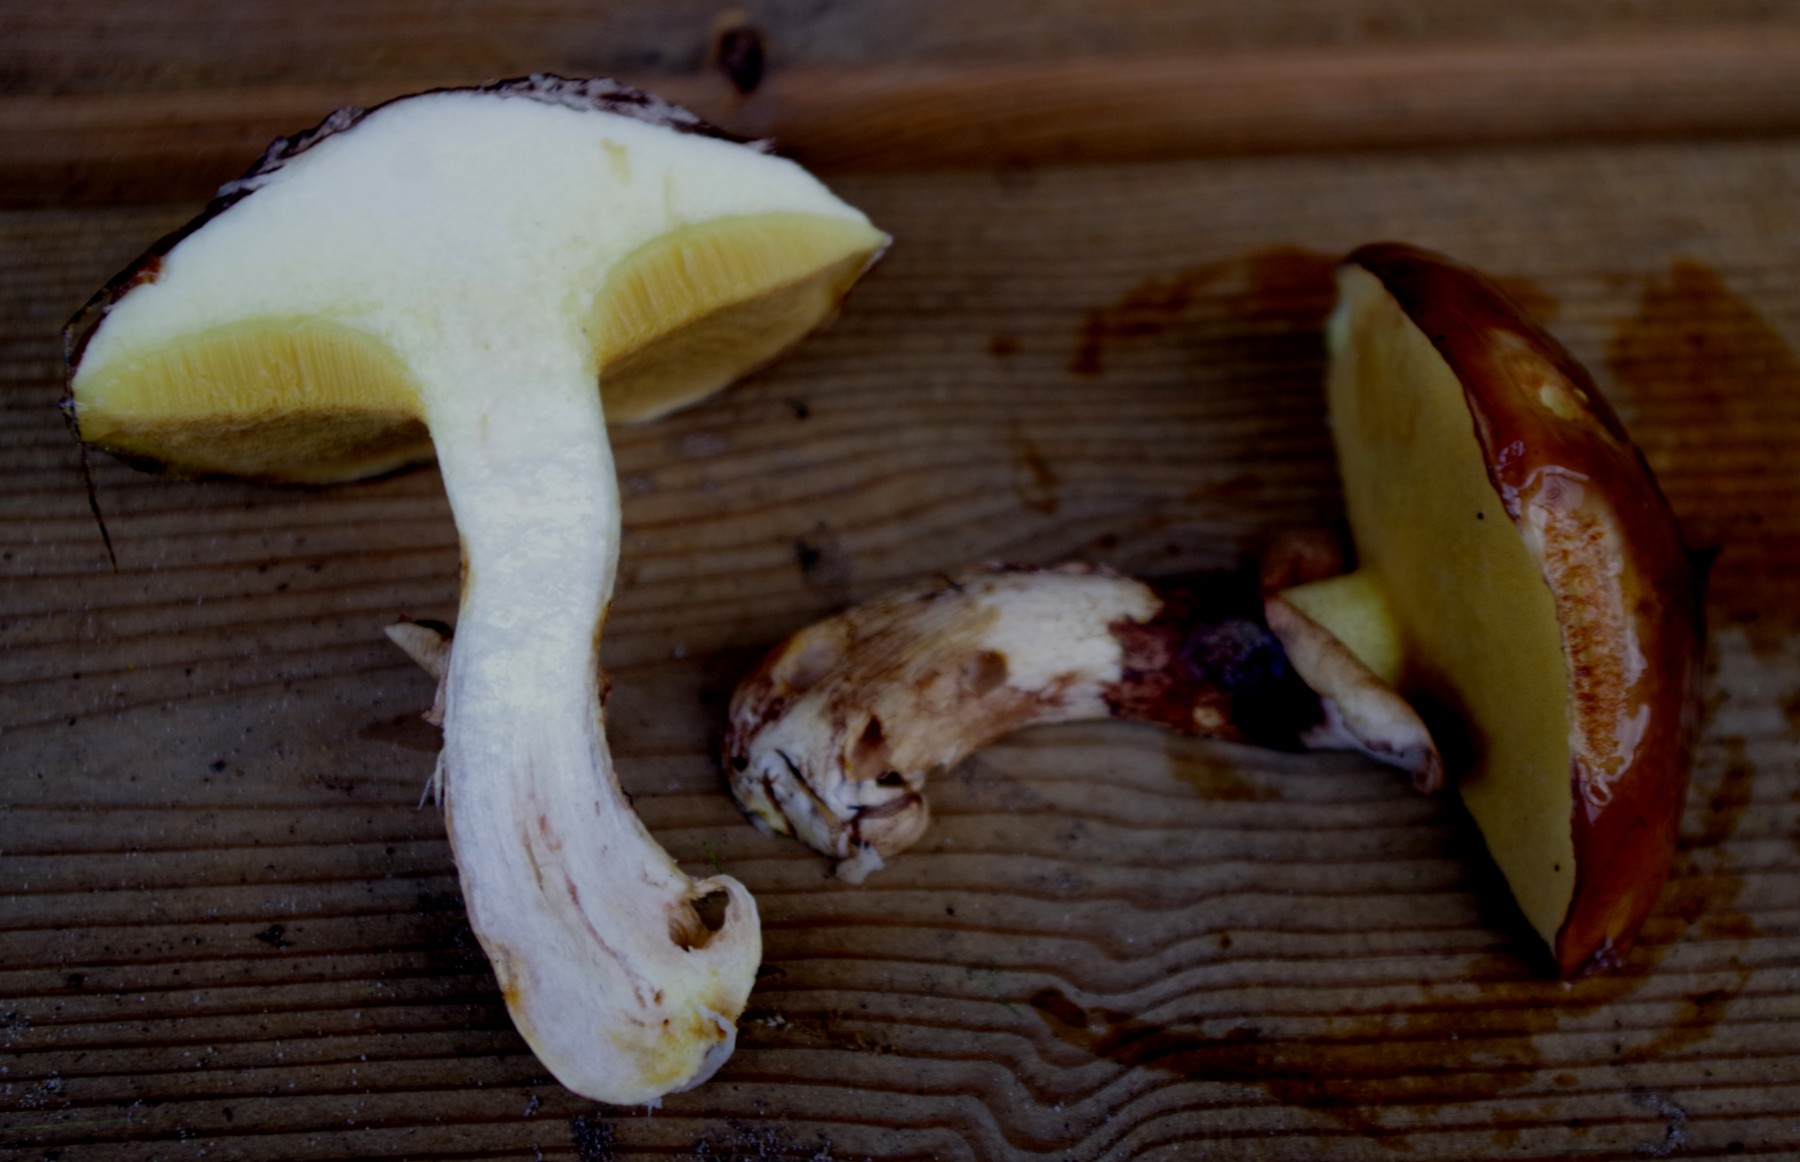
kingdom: Fungi
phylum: Basidiomycota
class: Agaricomycetes
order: Boletales
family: Suillaceae
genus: Suillus
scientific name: Suillus luteus
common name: brungul slimrørhat
